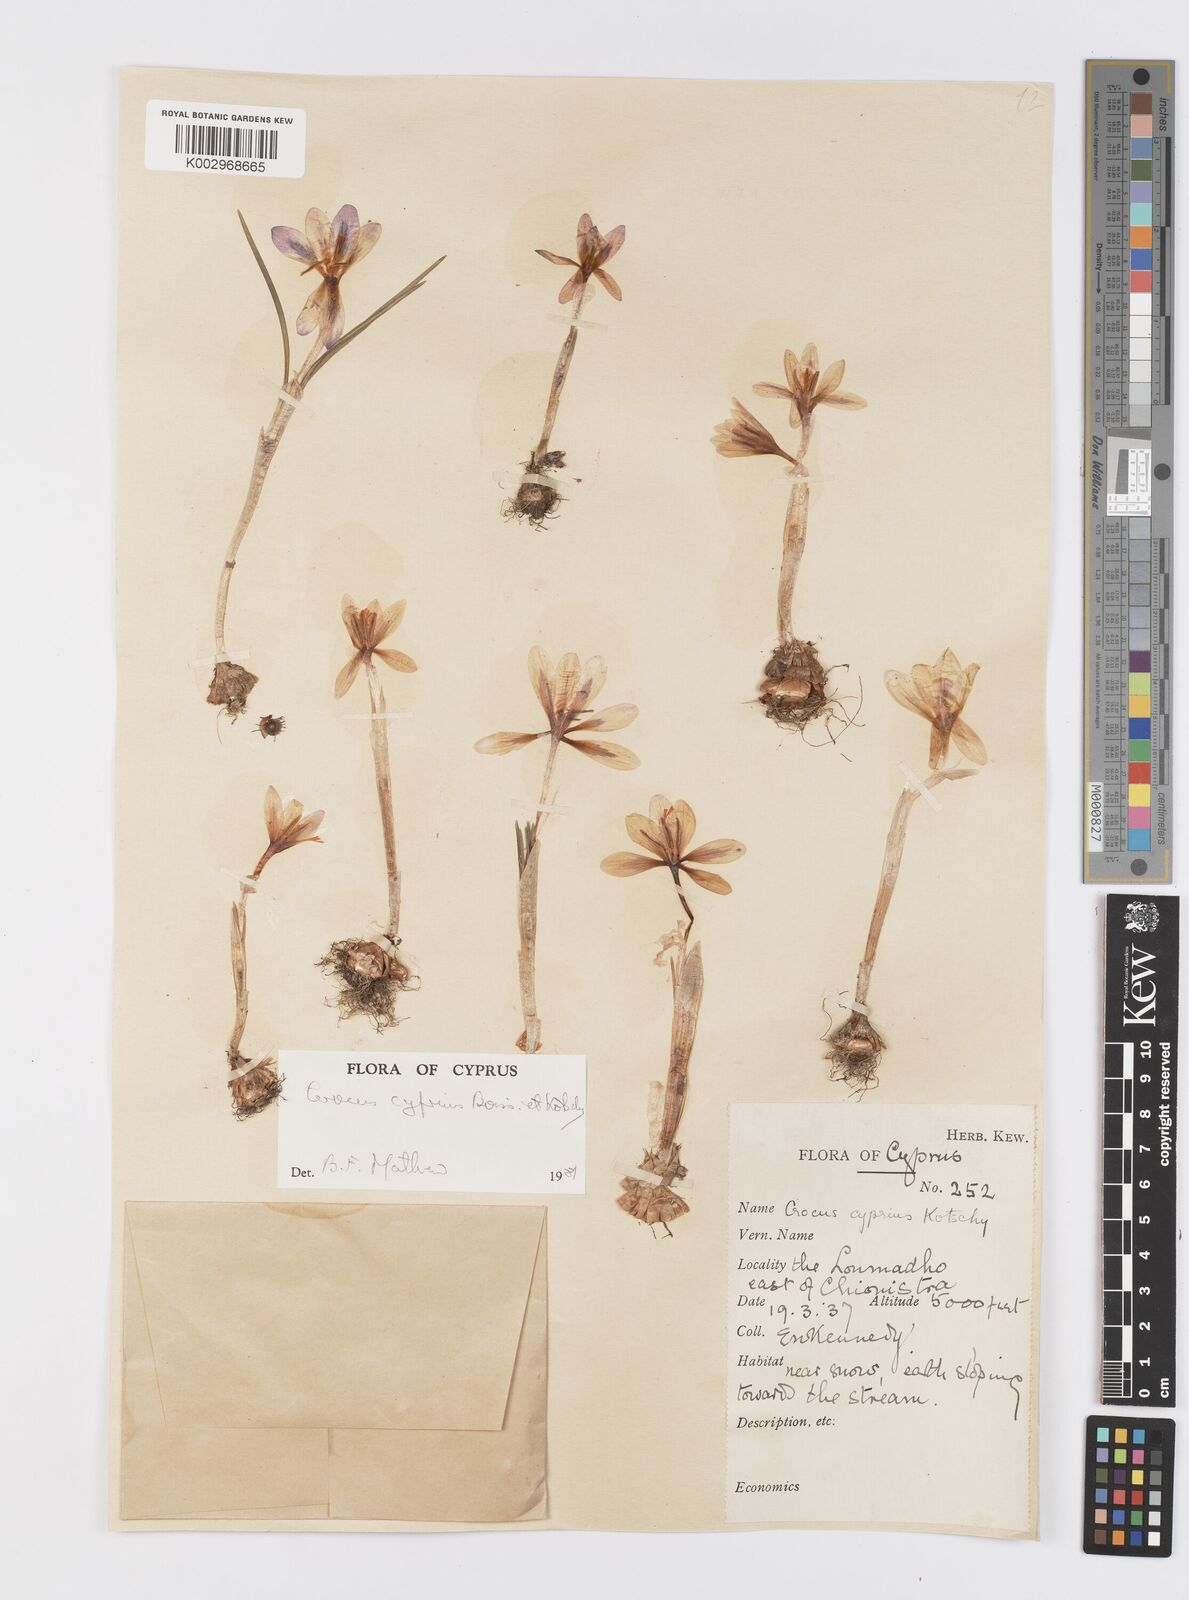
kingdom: Plantae
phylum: Tracheophyta
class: Liliopsida
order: Asparagales
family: Iridaceae
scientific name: Iridaceae
